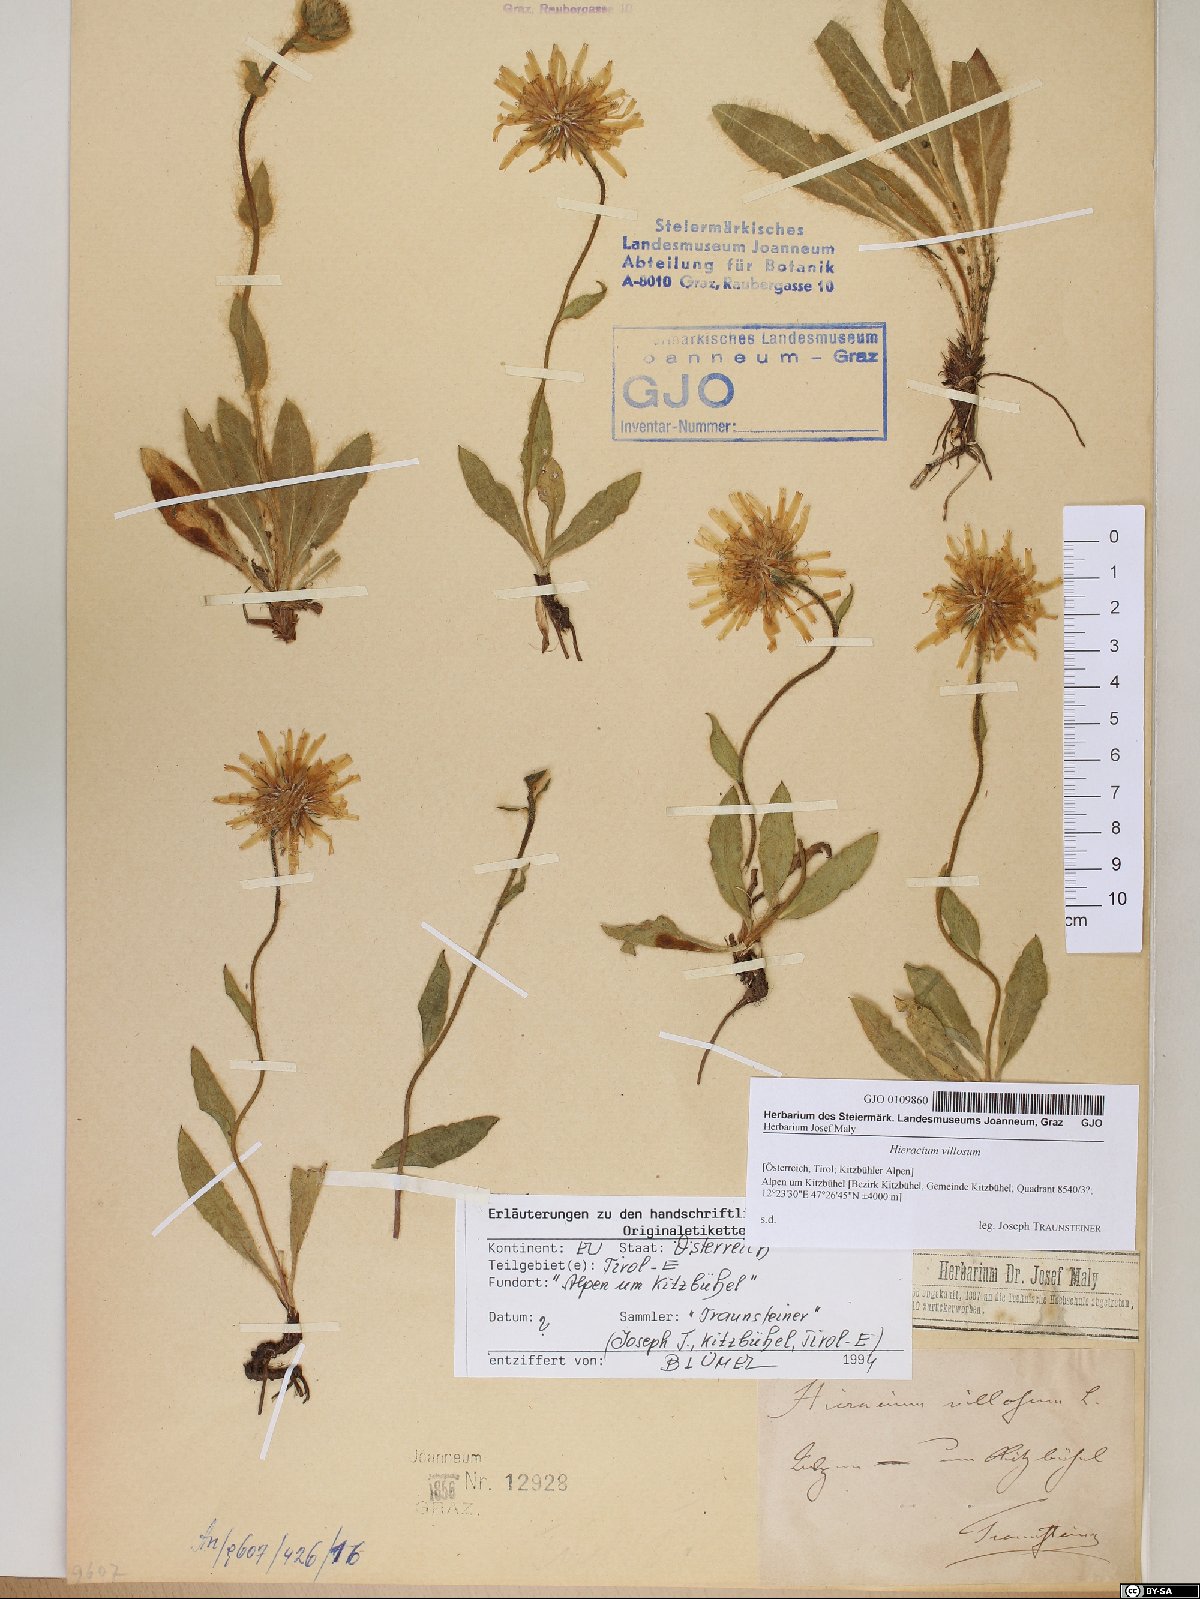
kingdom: Plantae
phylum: Tracheophyta
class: Magnoliopsida
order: Asterales
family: Asteraceae
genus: Hieracium
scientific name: Hieracium villosum
